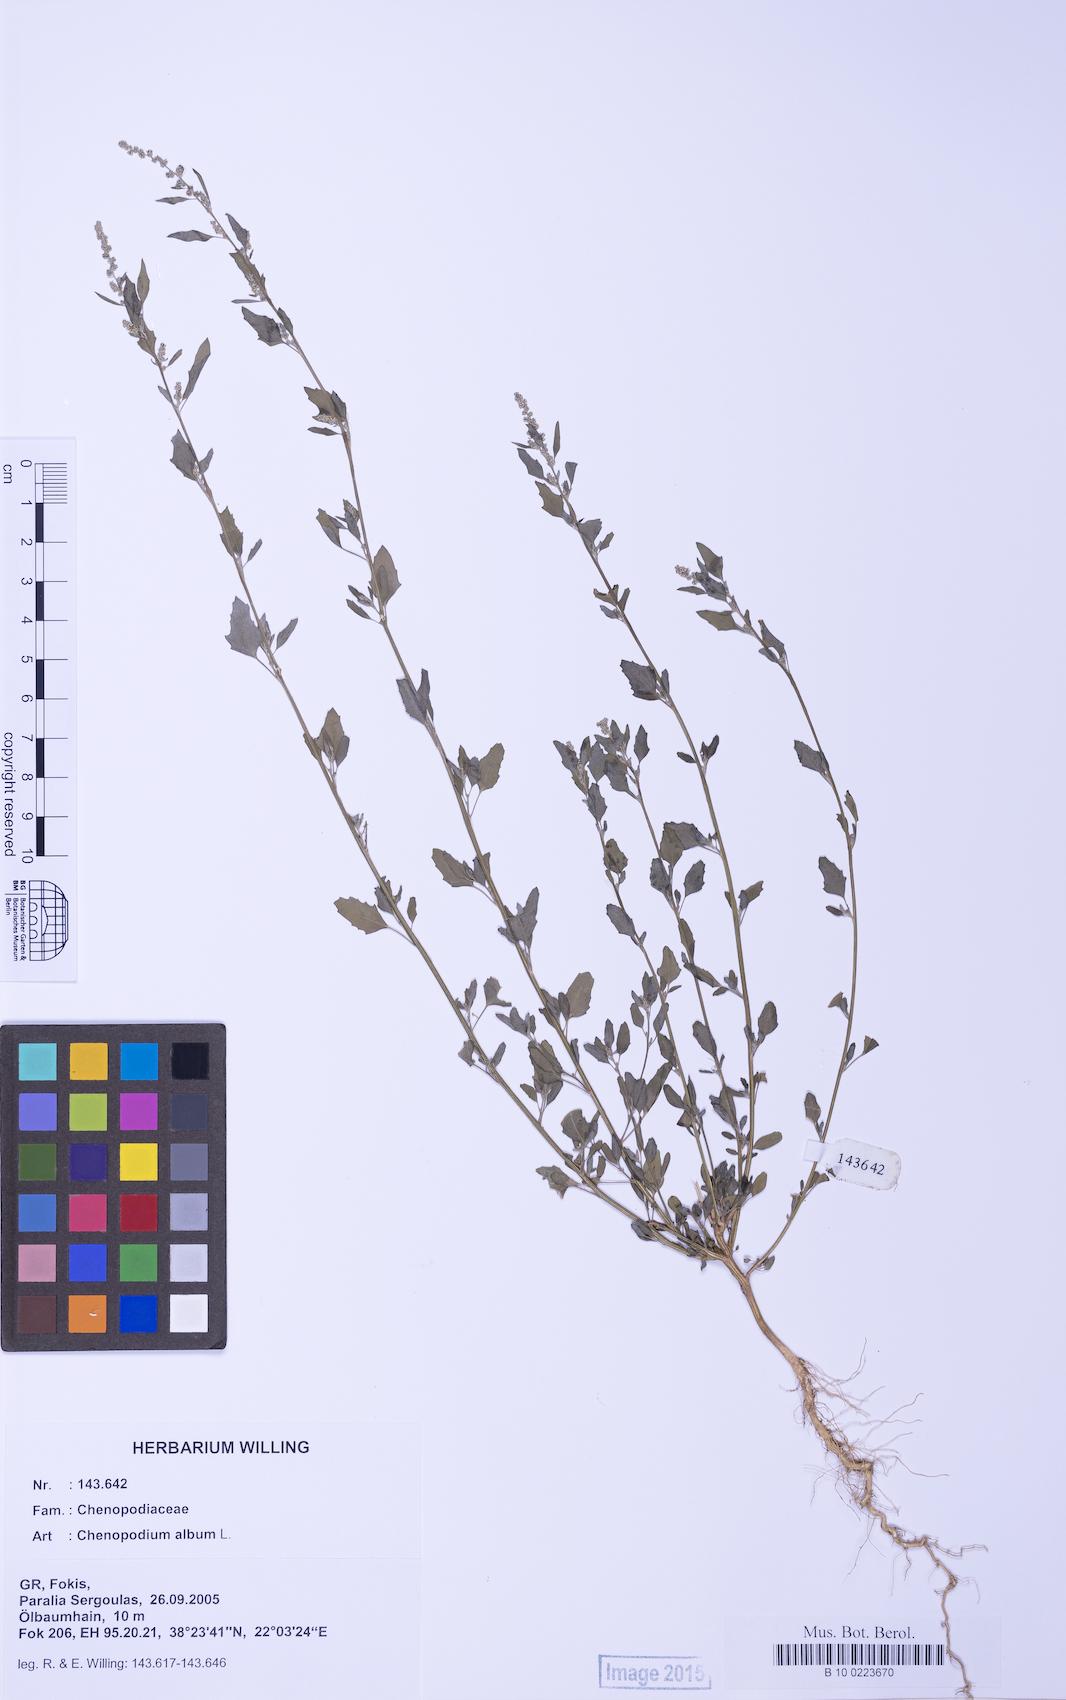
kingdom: Plantae
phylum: Tracheophyta
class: Magnoliopsida
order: Caryophyllales
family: Amaranthaceae
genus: Chenopodium
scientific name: Chenopodium album
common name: Fat-hen
